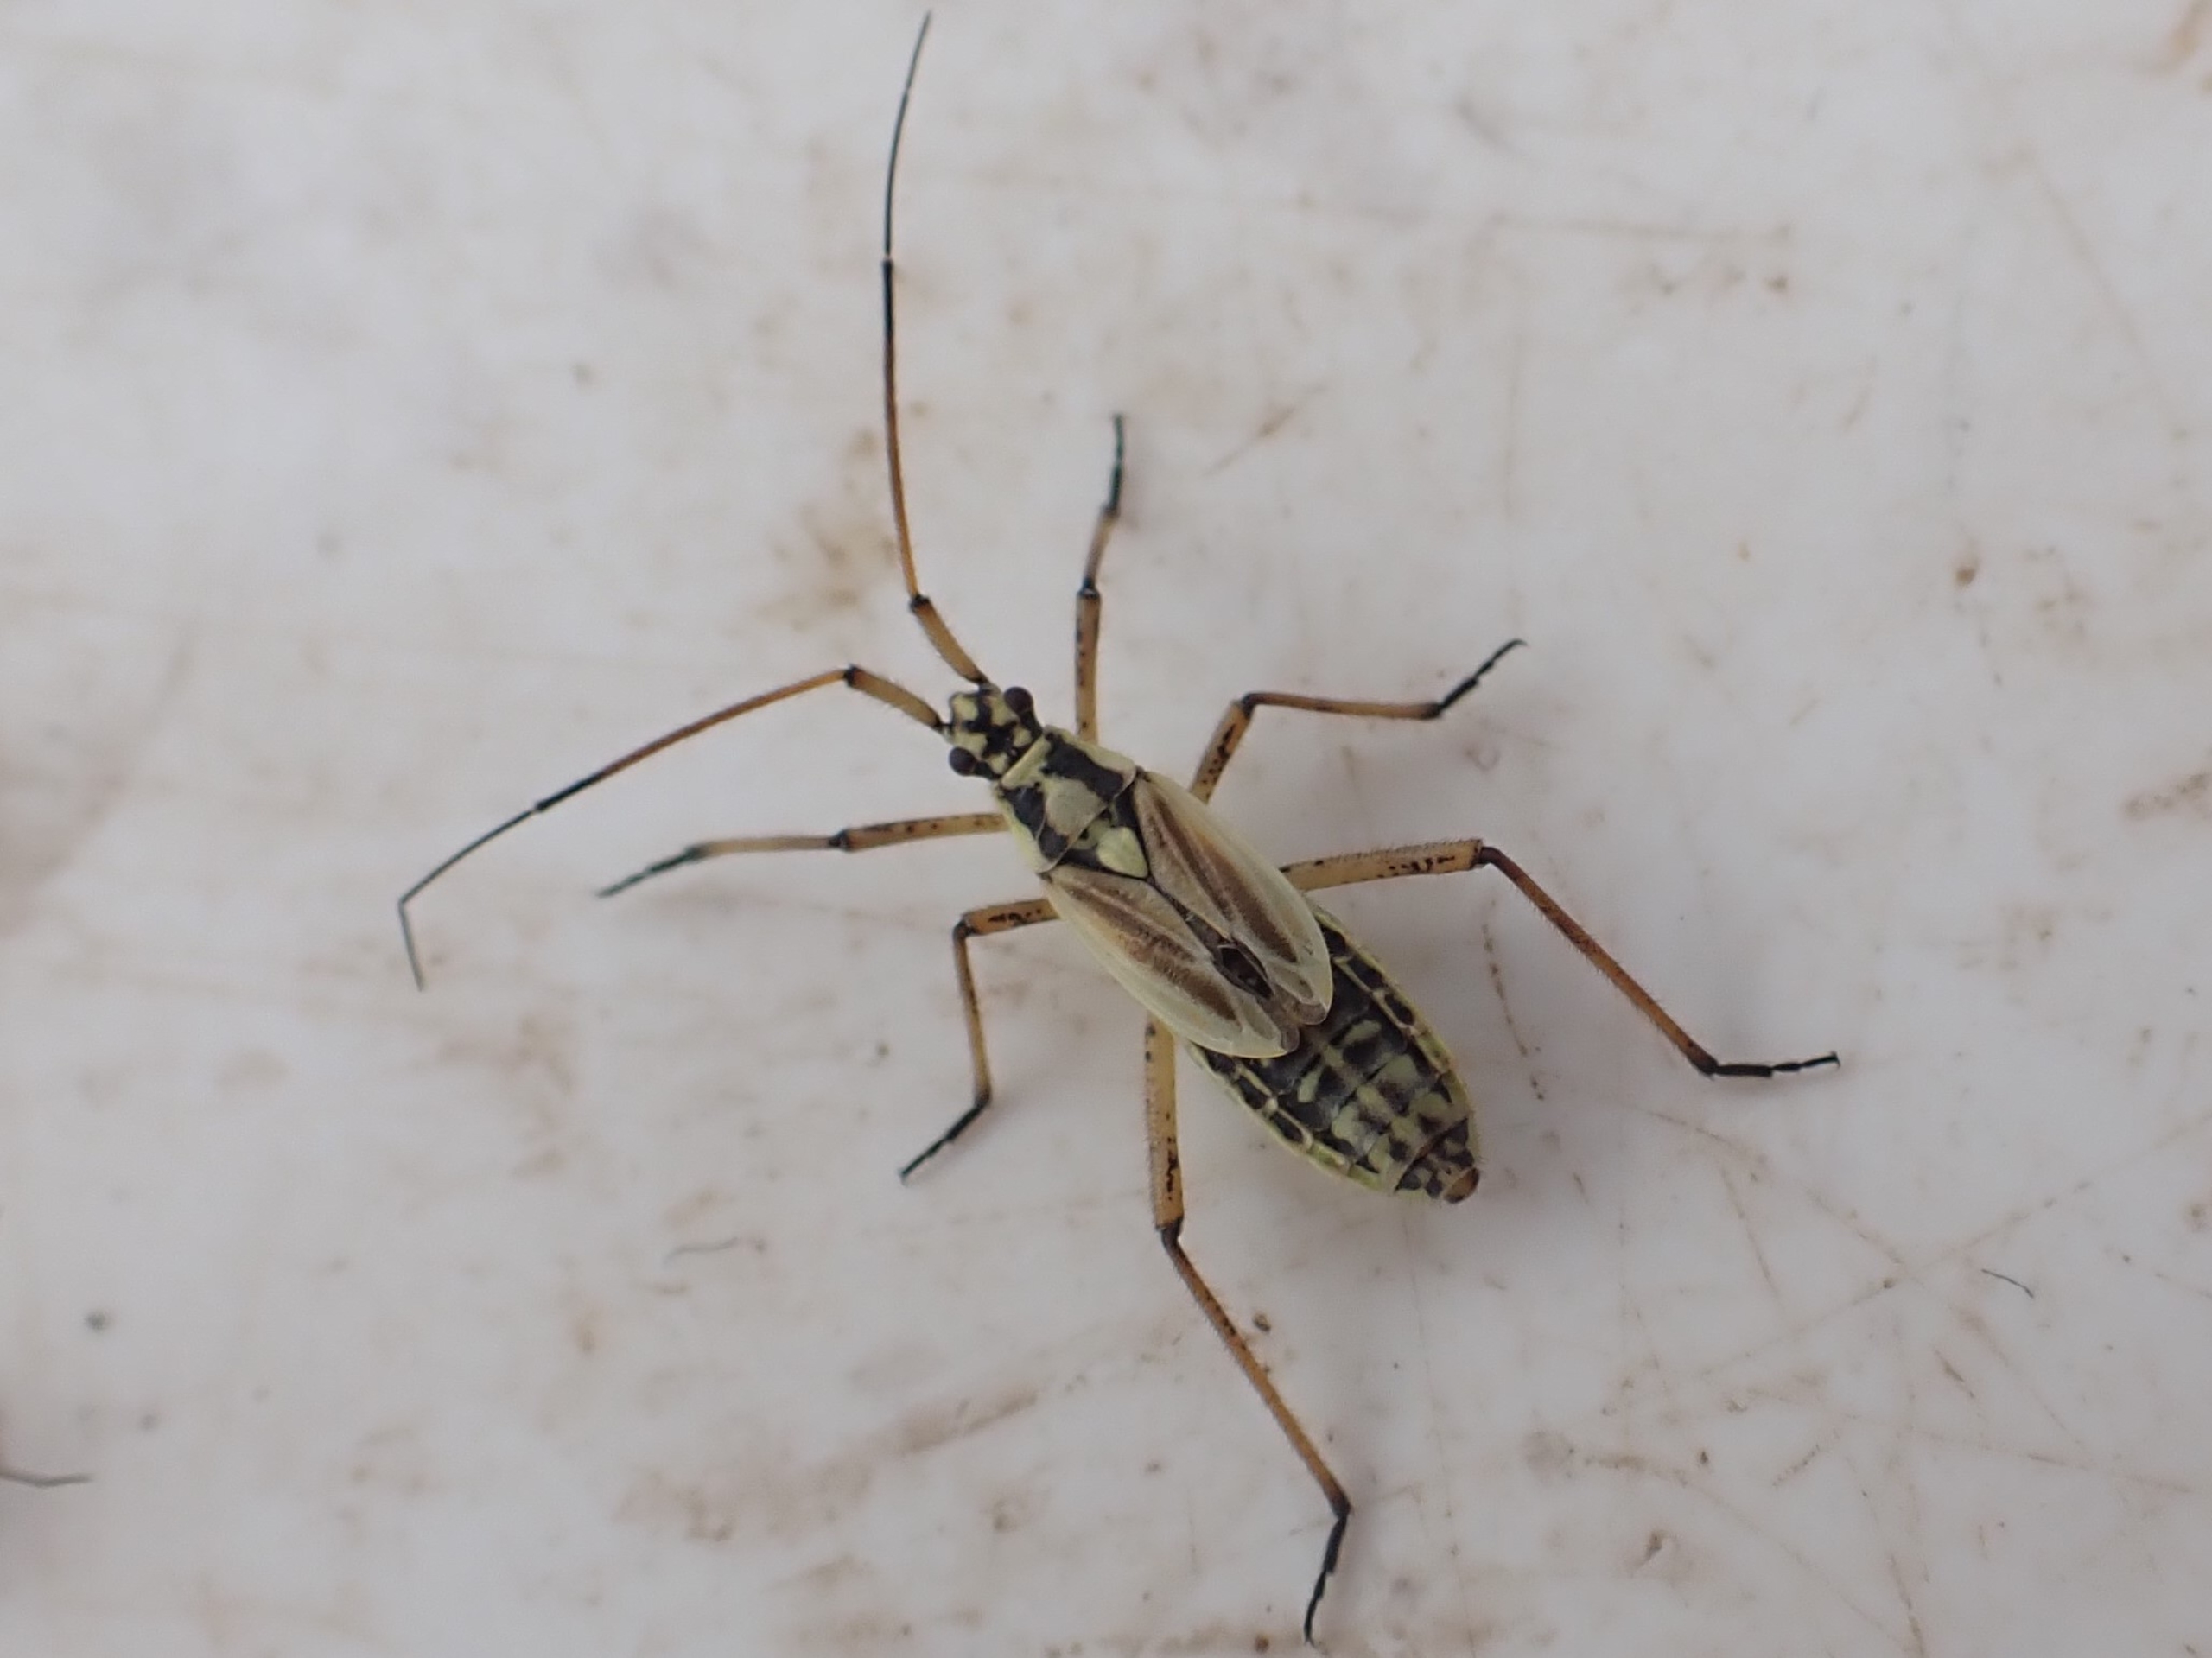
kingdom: Animalia
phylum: Arthropoda
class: Insecta
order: Hemiptera
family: Miridae
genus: Leptopterna
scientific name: Leptopterna dolabrata
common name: Almindelig græstæge
